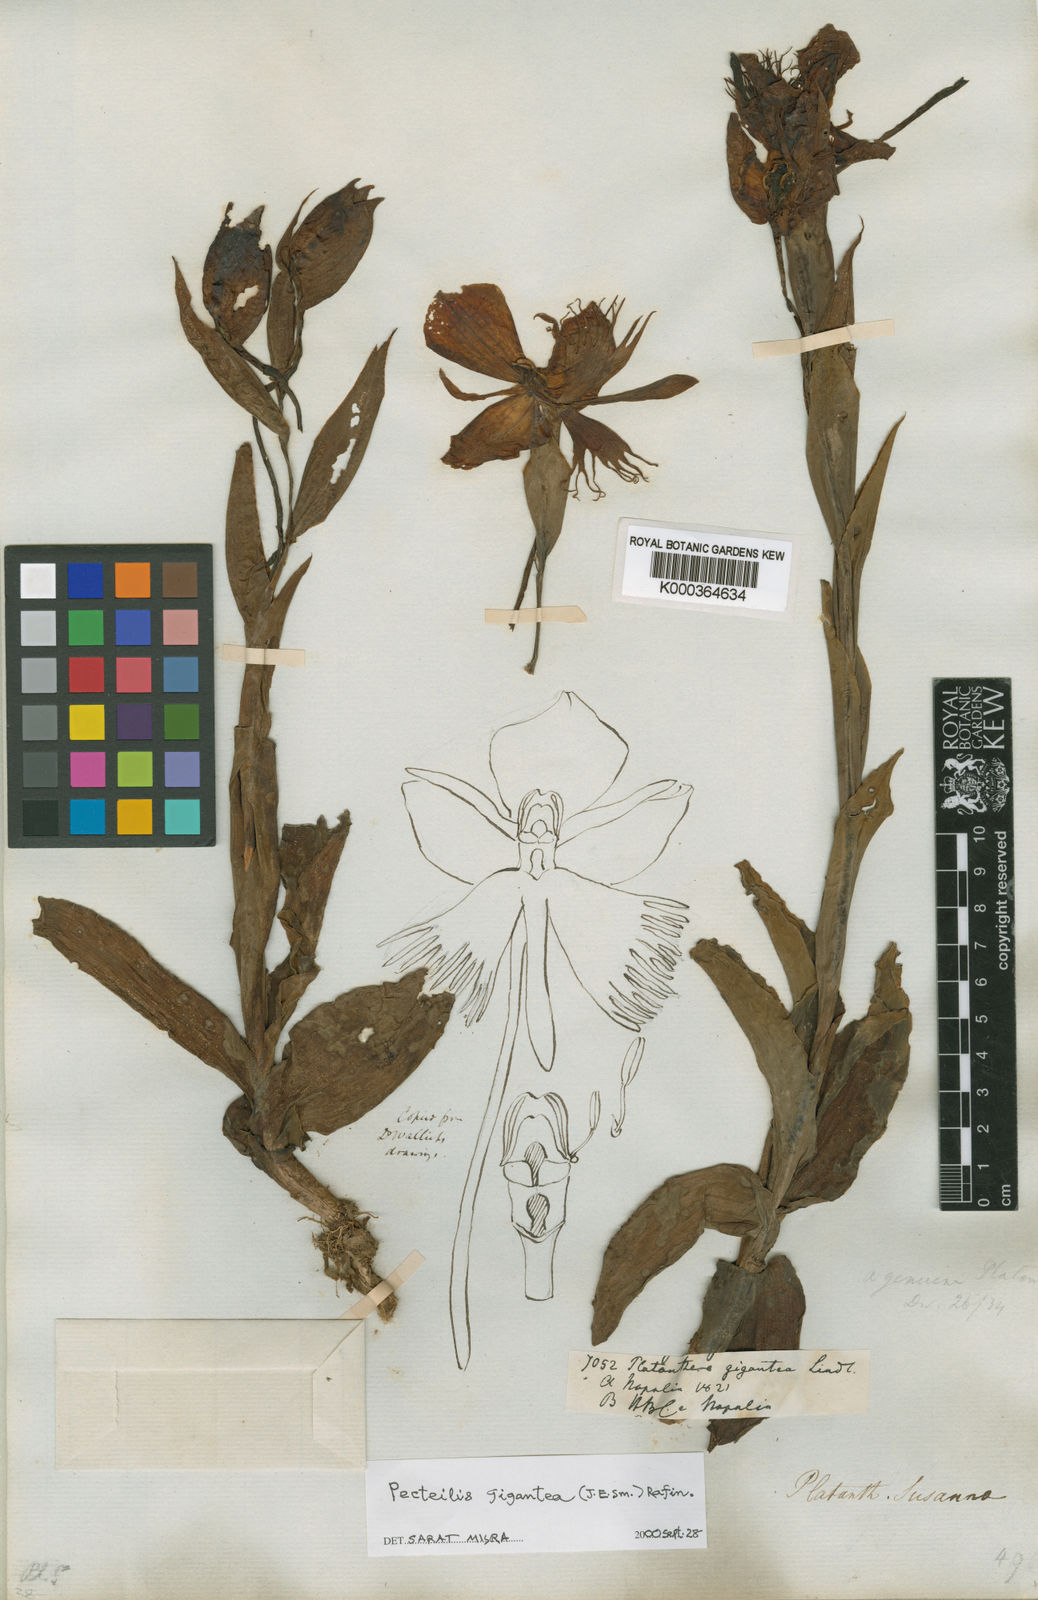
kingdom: Plantae
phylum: Tracheophyta
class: Liliopsida
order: Asparagales
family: Orchidaceae
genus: Pecteilis
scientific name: Pecteilis gigantea
